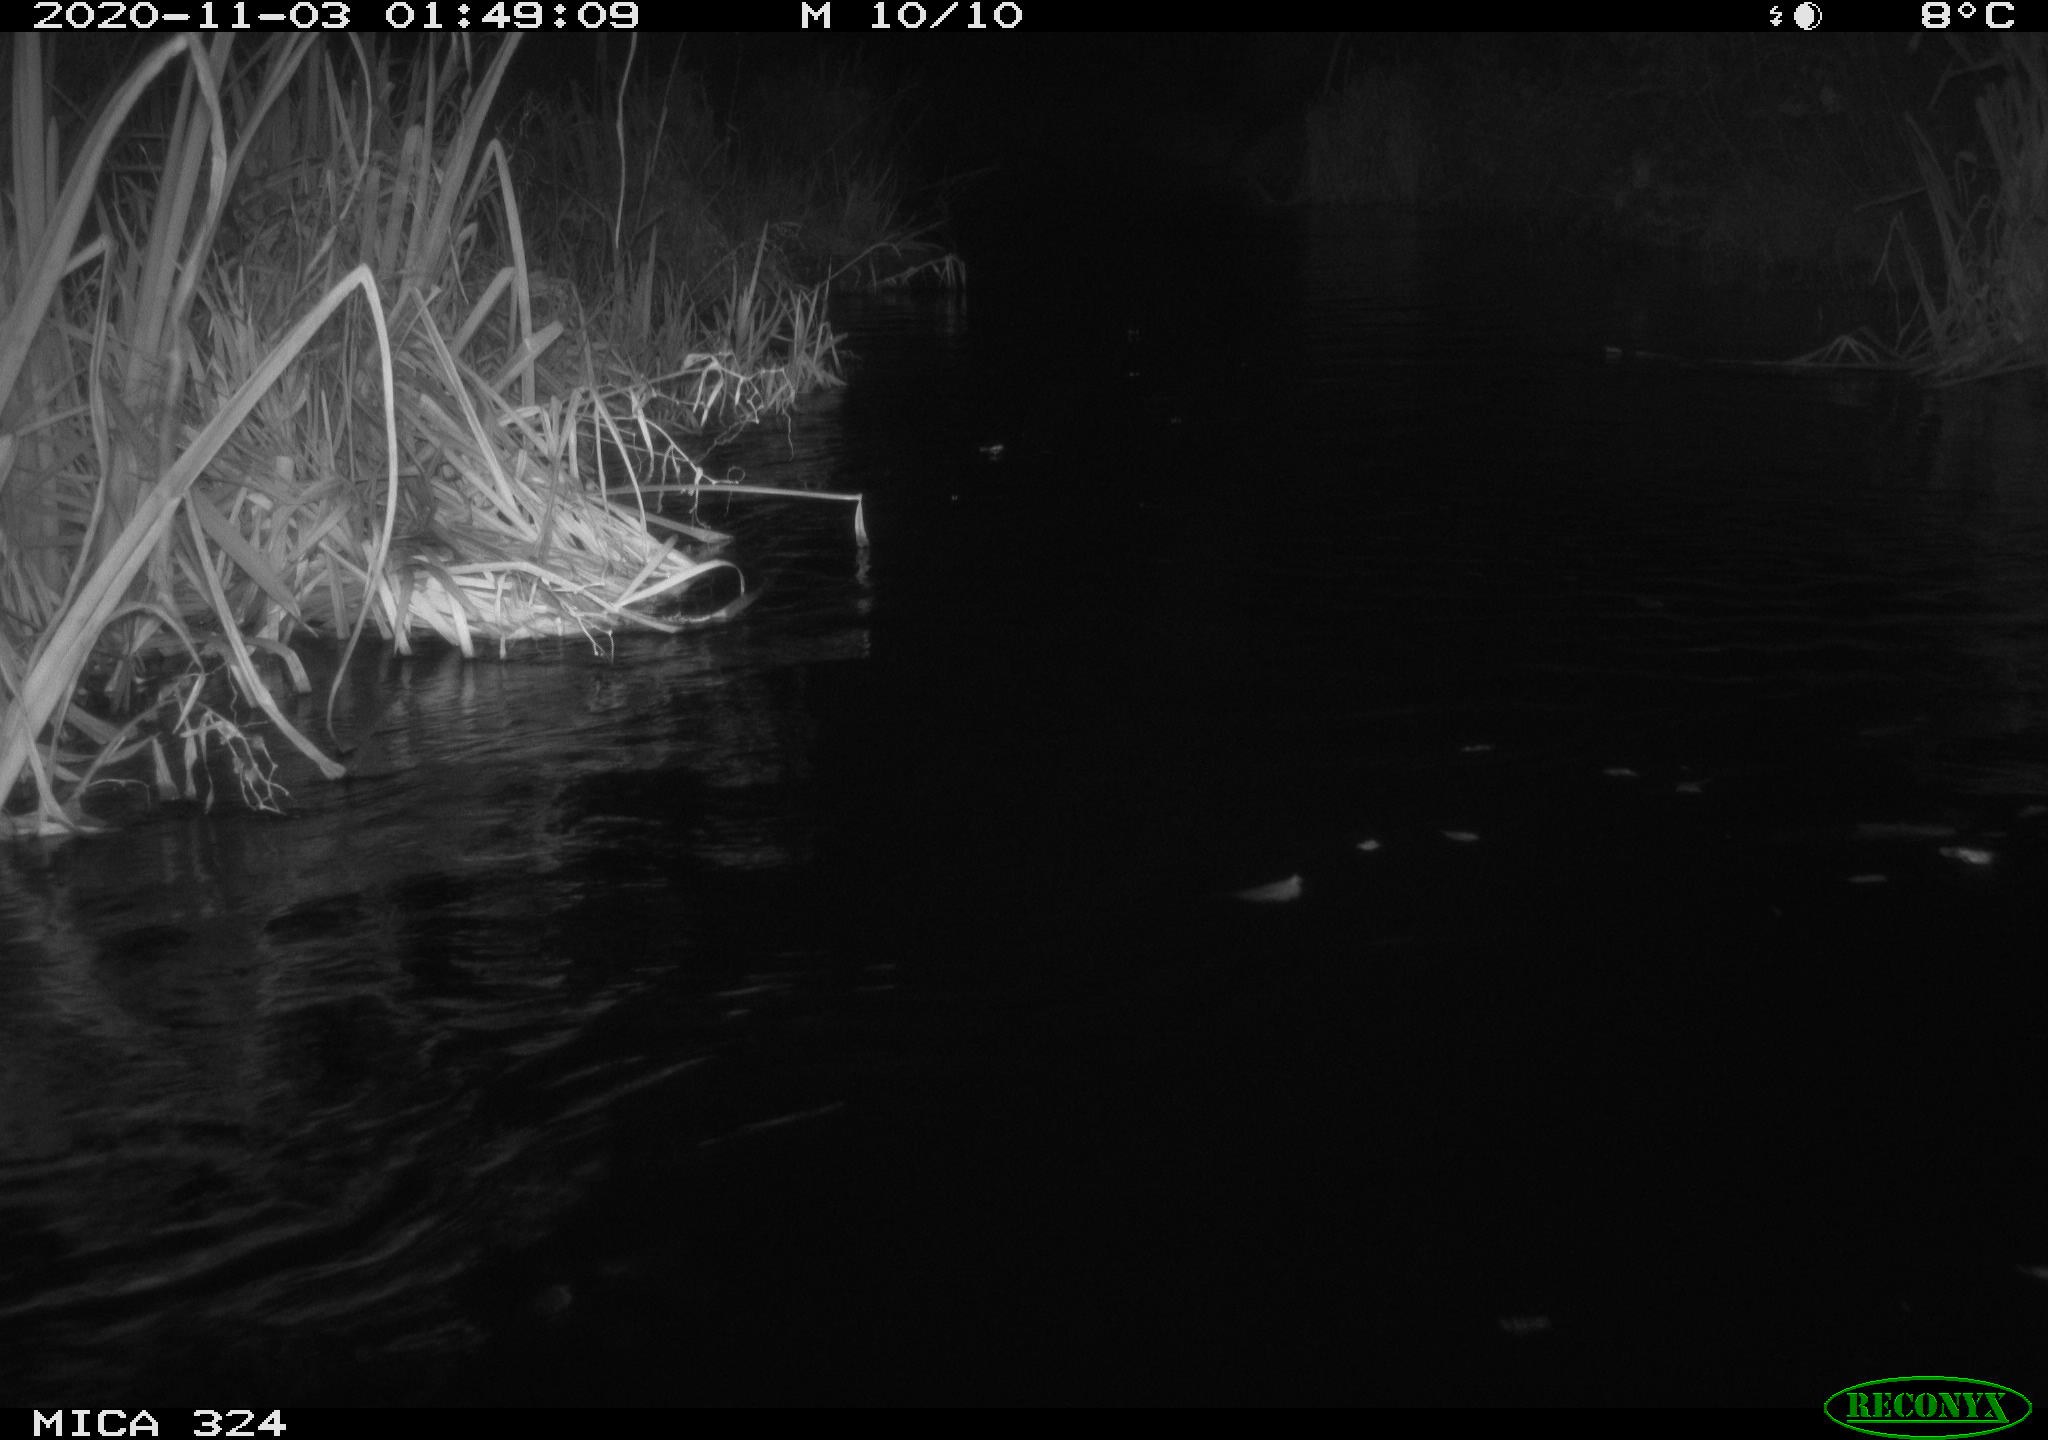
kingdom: Animalia
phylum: Chordata
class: Mammalia
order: Rodentia
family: Myocastoridae
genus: Myocastor
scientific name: Myocastor coypus
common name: Coypu
